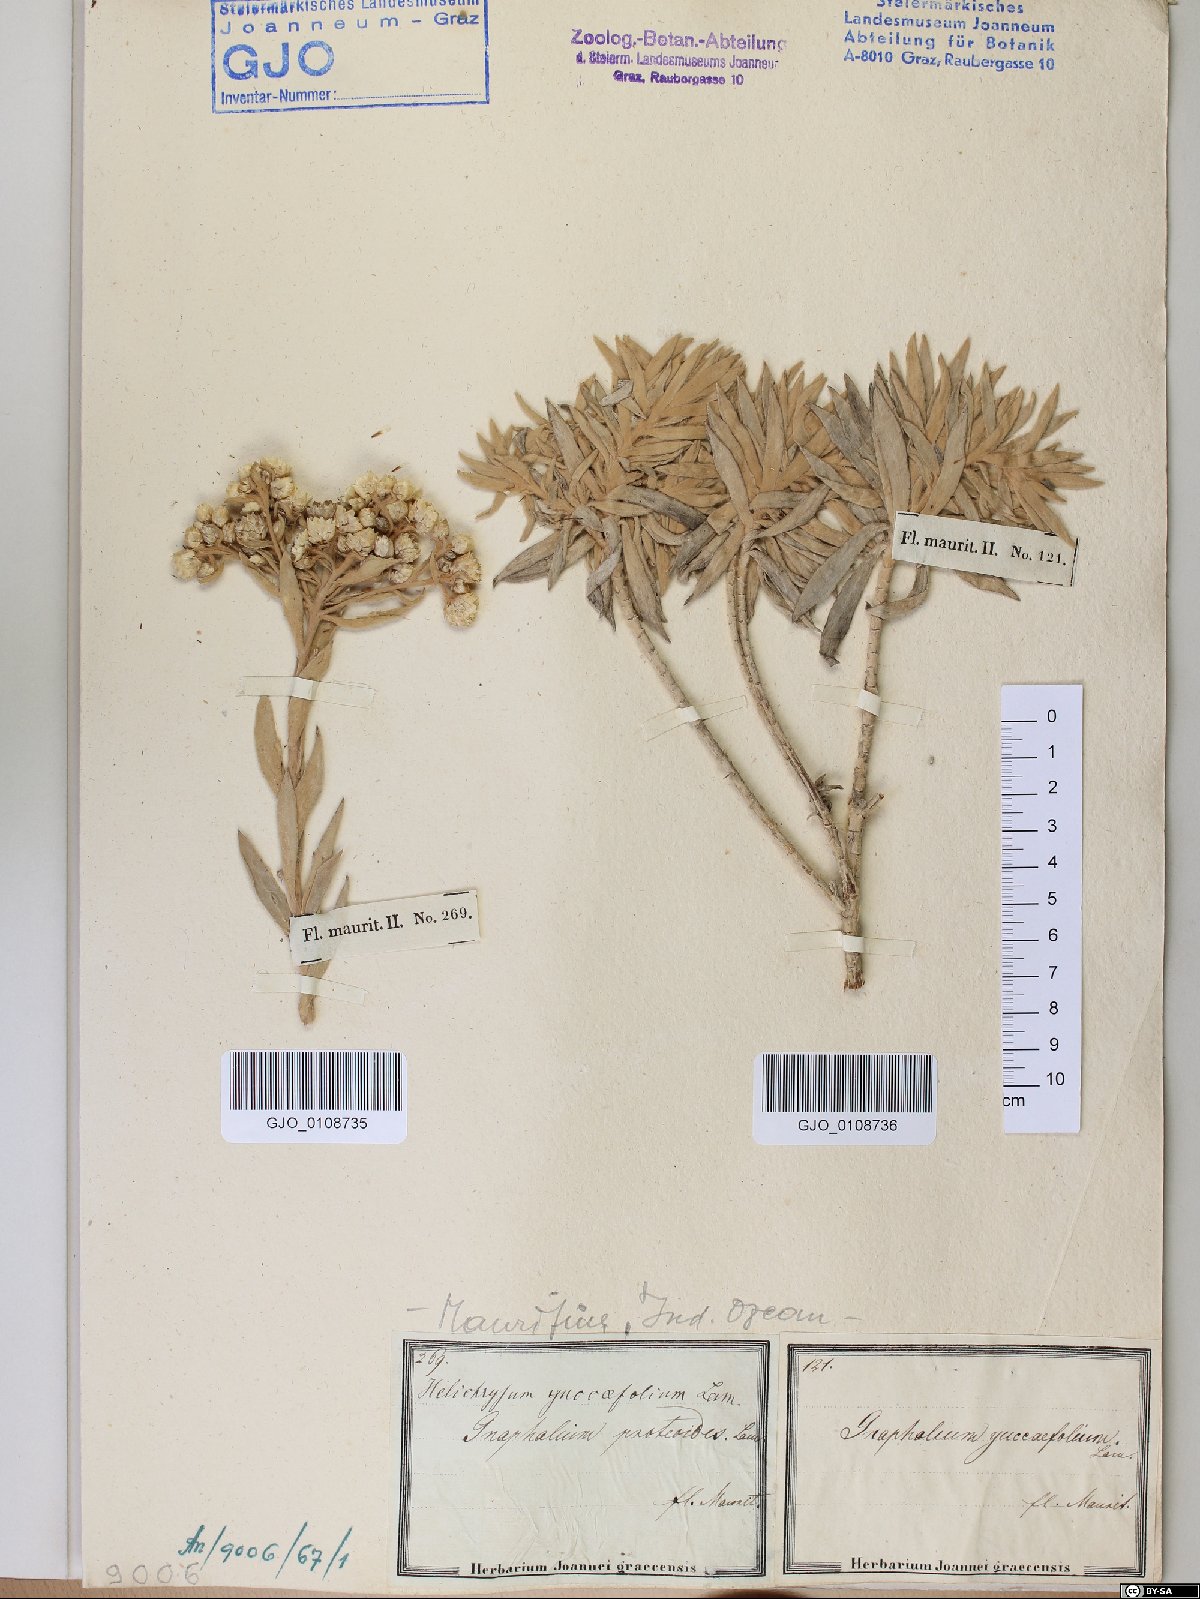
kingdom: Plantae
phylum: Tracheophyta
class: Magnoliopsida
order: Asterales
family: Asteraceae
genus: Helichrysum
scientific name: Helichrysum yuccifolium
